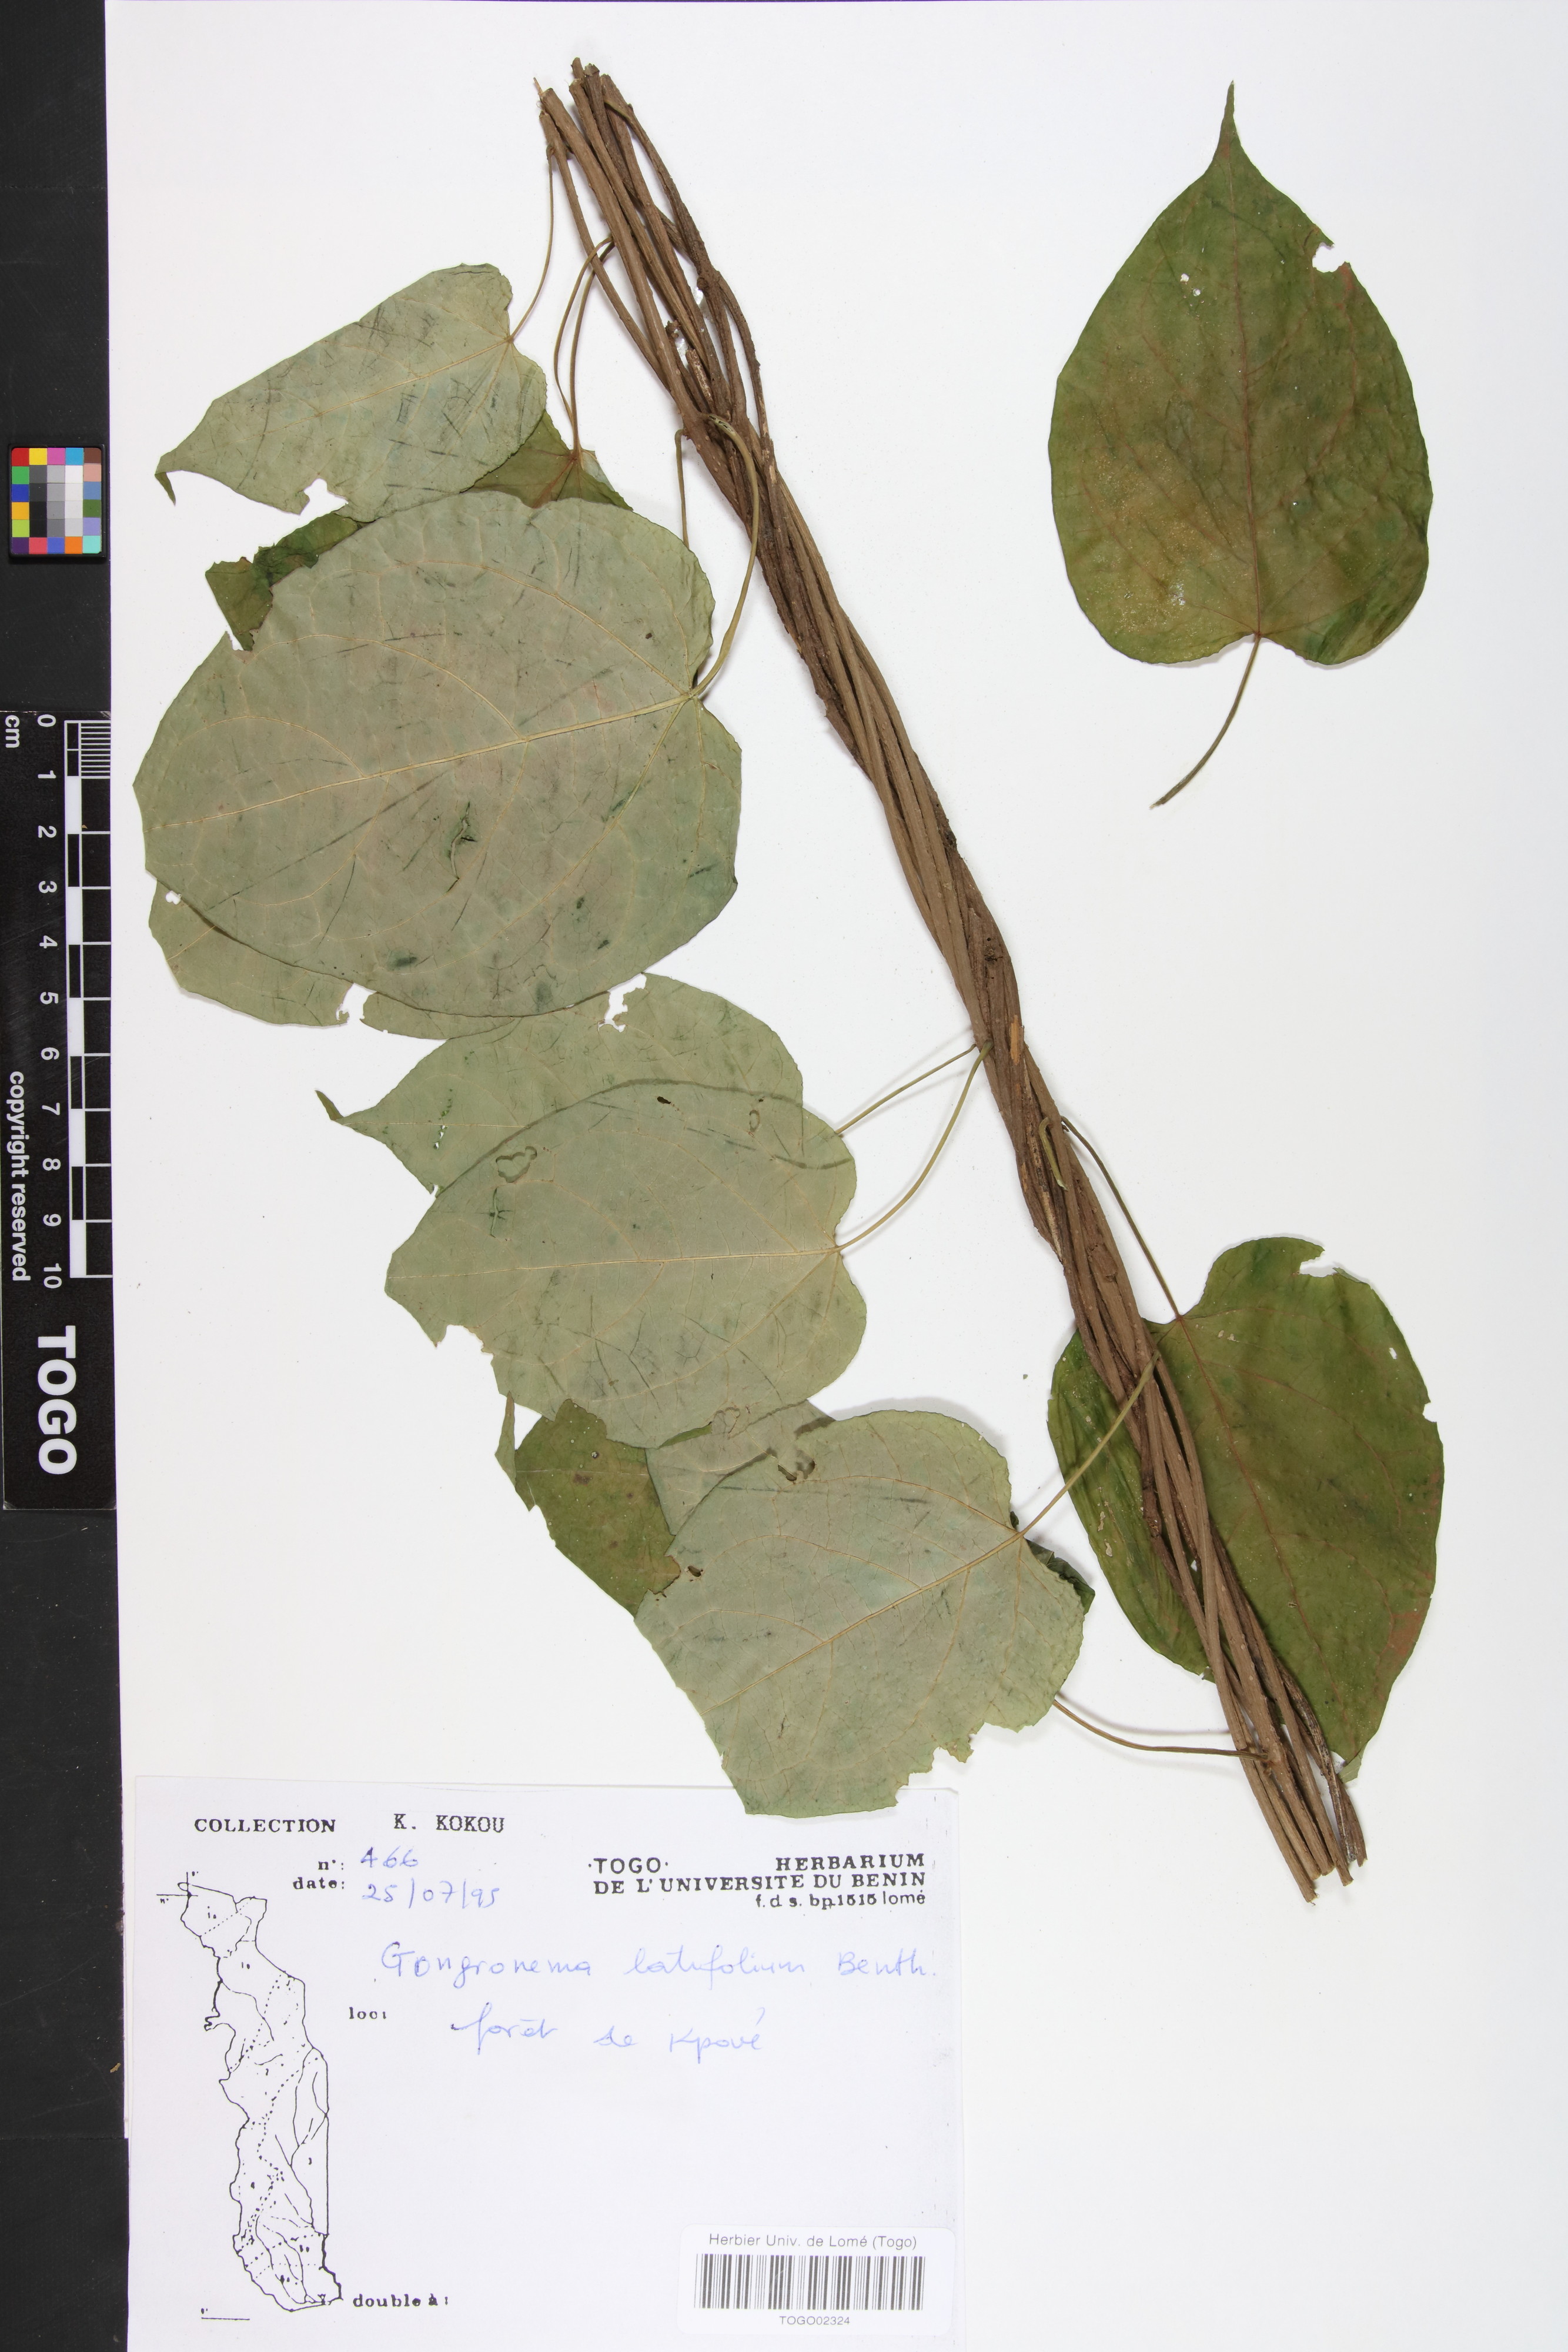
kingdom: Plantae
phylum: Tracheophyta
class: Magnoliopsida
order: Gentianales
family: Apocynaceae
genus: Gongronemopsis
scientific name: Gongronemopsis angolensis
